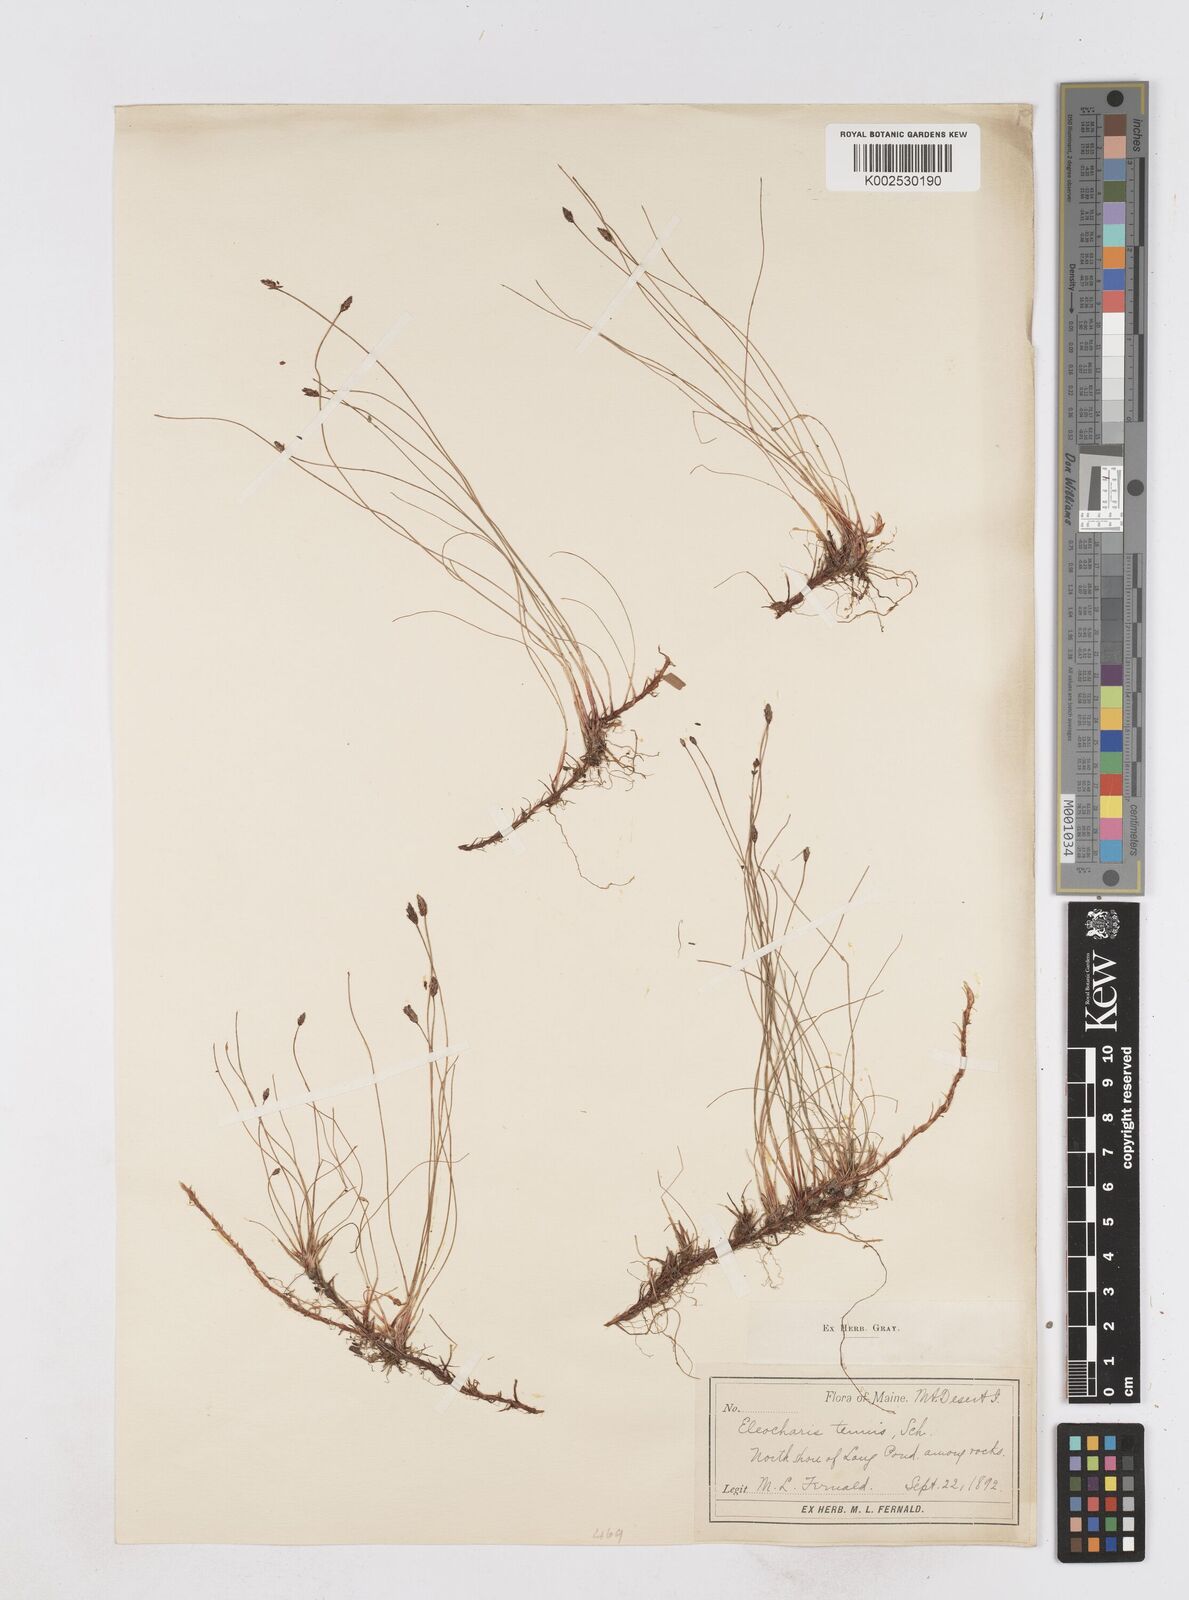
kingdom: Plantae
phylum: Tracheophyta
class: Liliopsida
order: Poales
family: Cyperaceae
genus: Eleocharis
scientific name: Eleocharis tenuis
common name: Dog's hair
